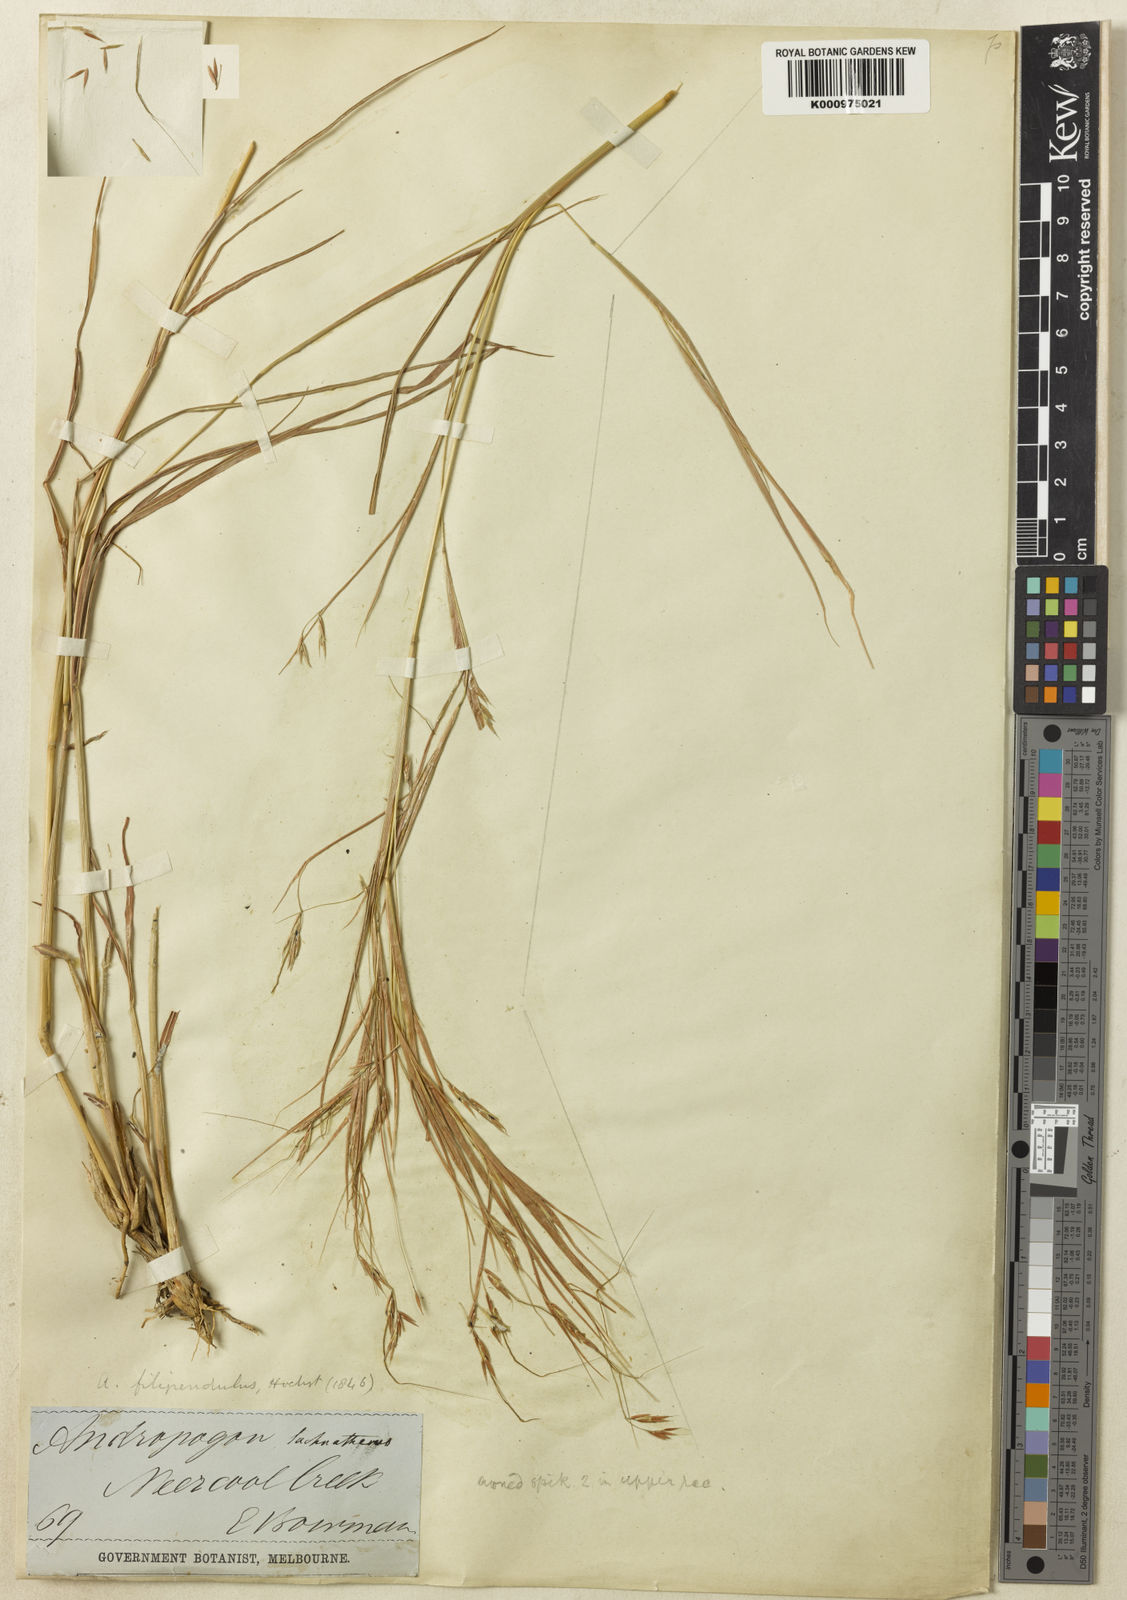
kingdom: Plantae
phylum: Tracheophyta
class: Liliopsida
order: Poales
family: Poaceae
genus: Hyparrhenia
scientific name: Hyparrhenia filipendula
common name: Tambookie grass
